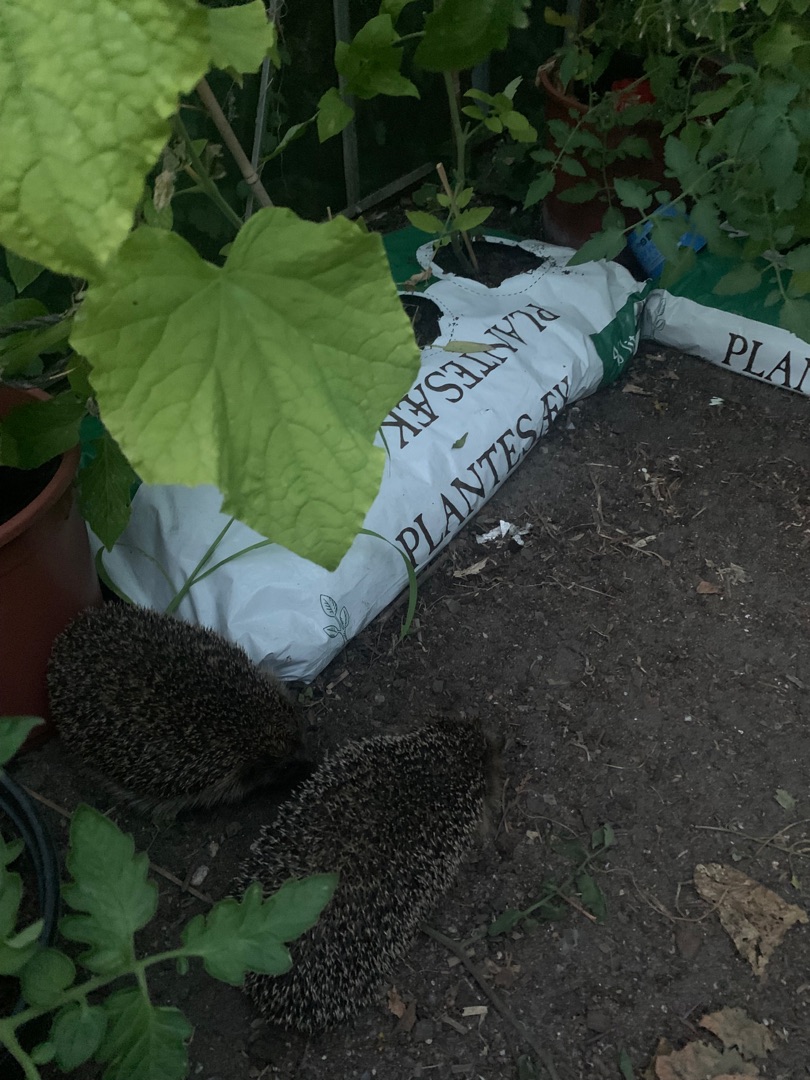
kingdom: Animalia
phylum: Chordata
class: Mammalia
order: Erinaceomorpha
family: Erinaceidae
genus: Erinaceus
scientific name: Erinaceus europaeus
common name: Pindsvin
